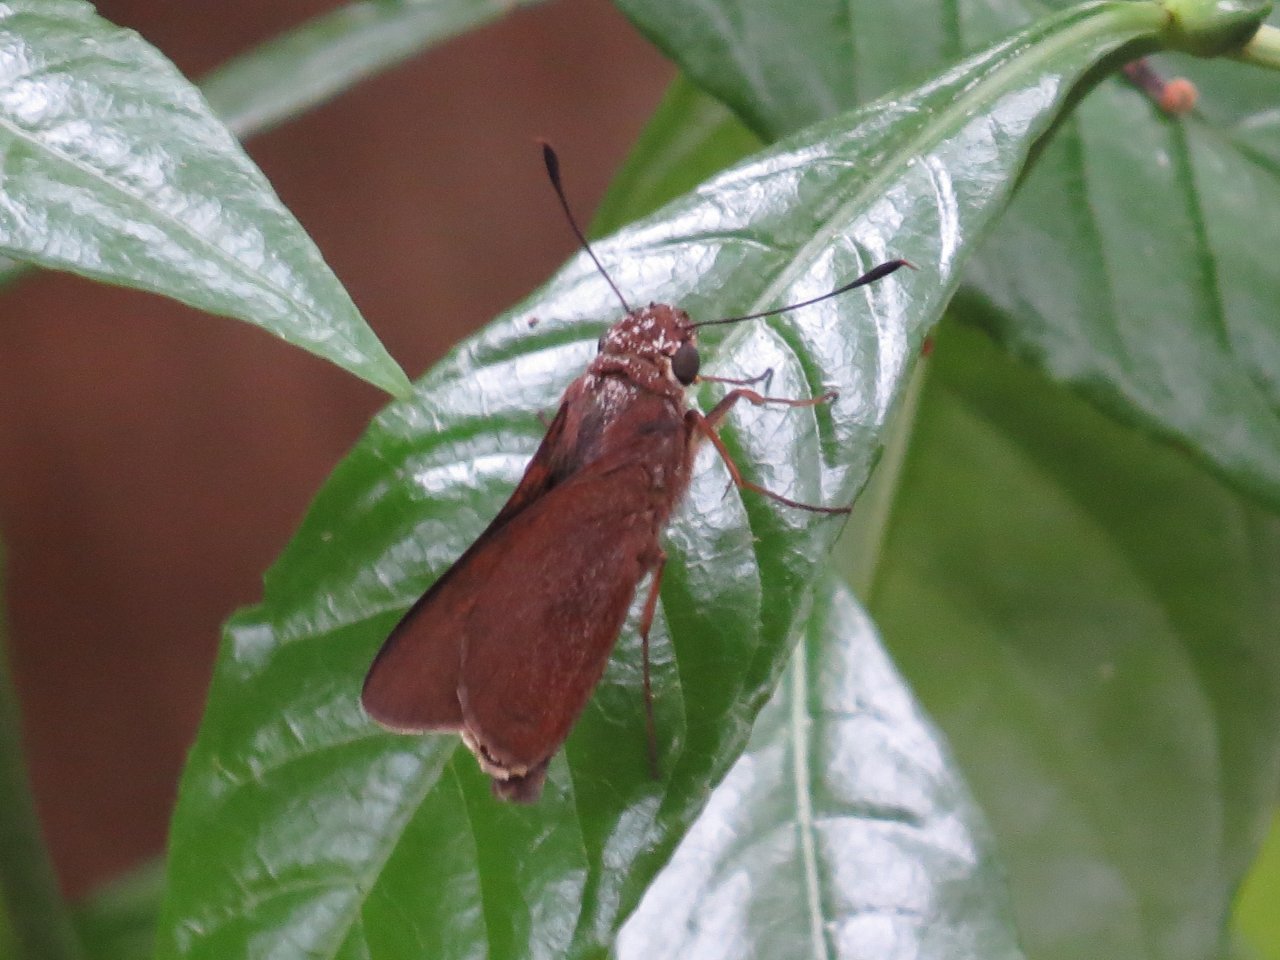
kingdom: Animalia
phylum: Arthropoda
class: Insecta
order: Lepidoptera
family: Hesperiidae
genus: Asbolis
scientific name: Asbolis capucinus
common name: Monk Skipper
